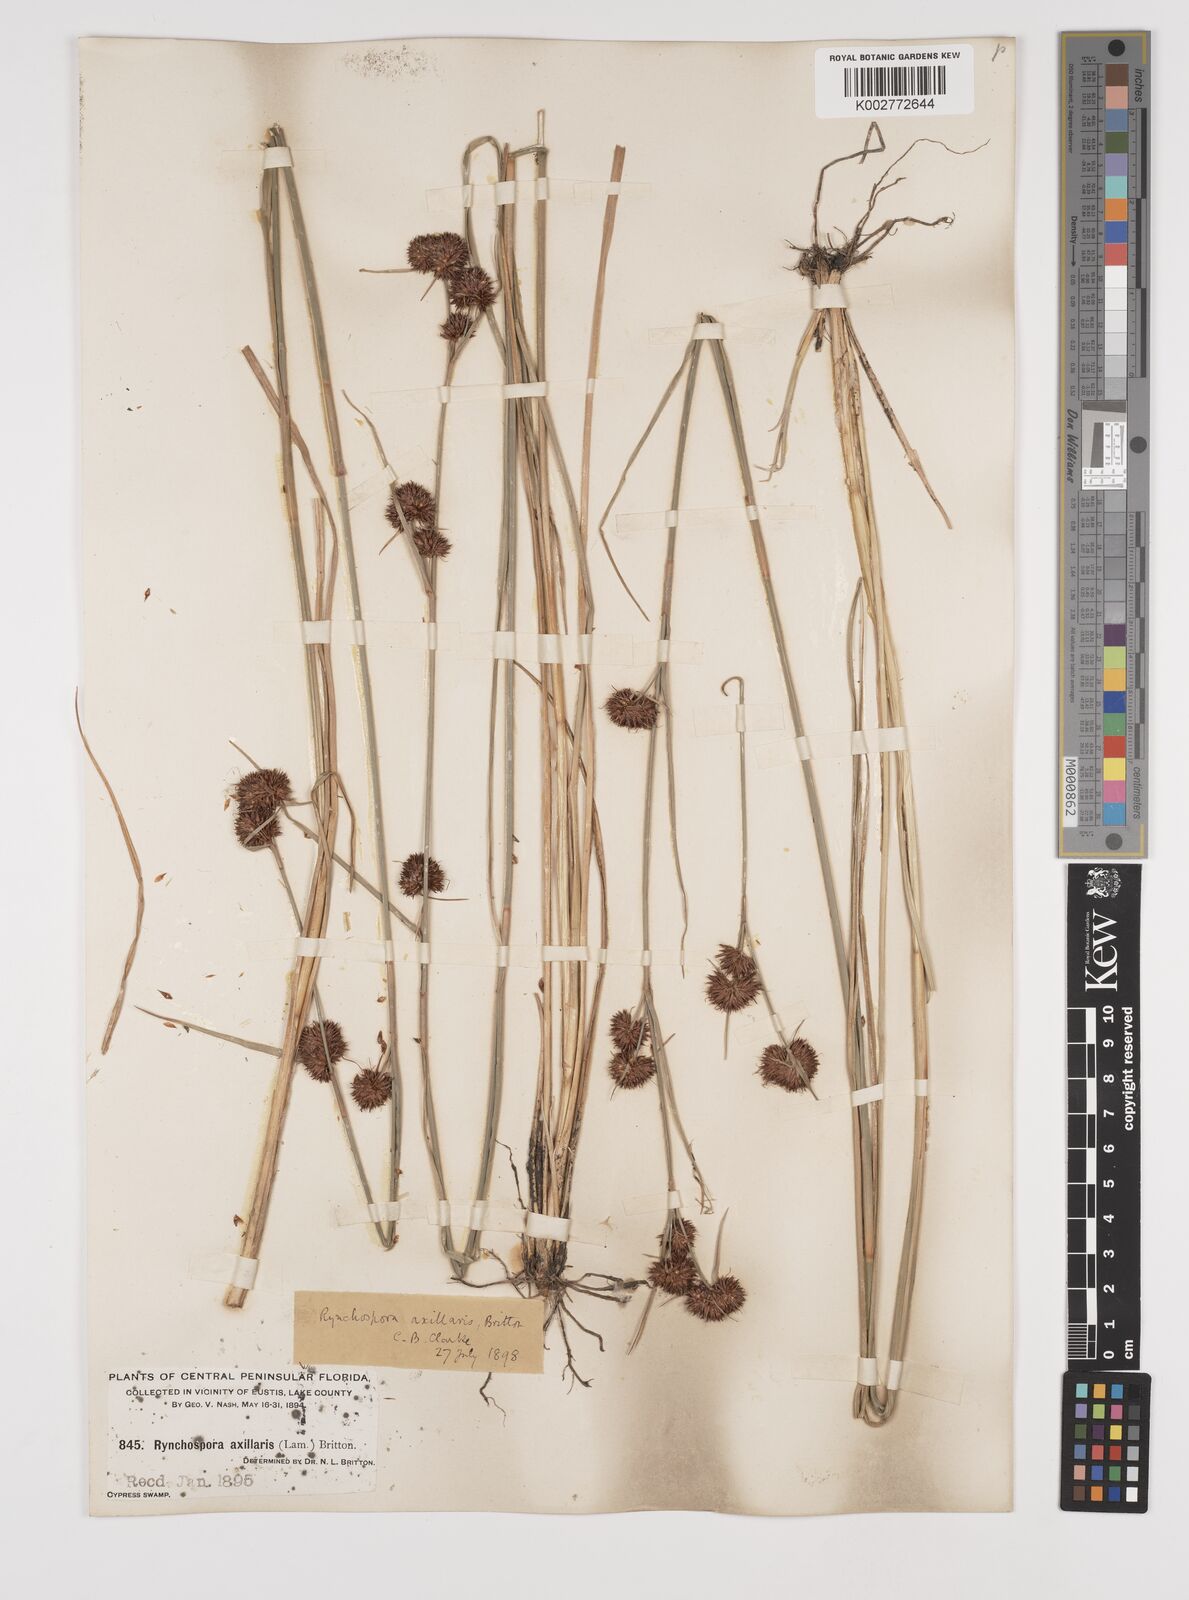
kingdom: Plantae
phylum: Tracheophyta
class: Liliopsida
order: Poales
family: Cyperaceae
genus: Rhynchospora
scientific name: Rhynchospora glomerata
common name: Cluster beak sedge
